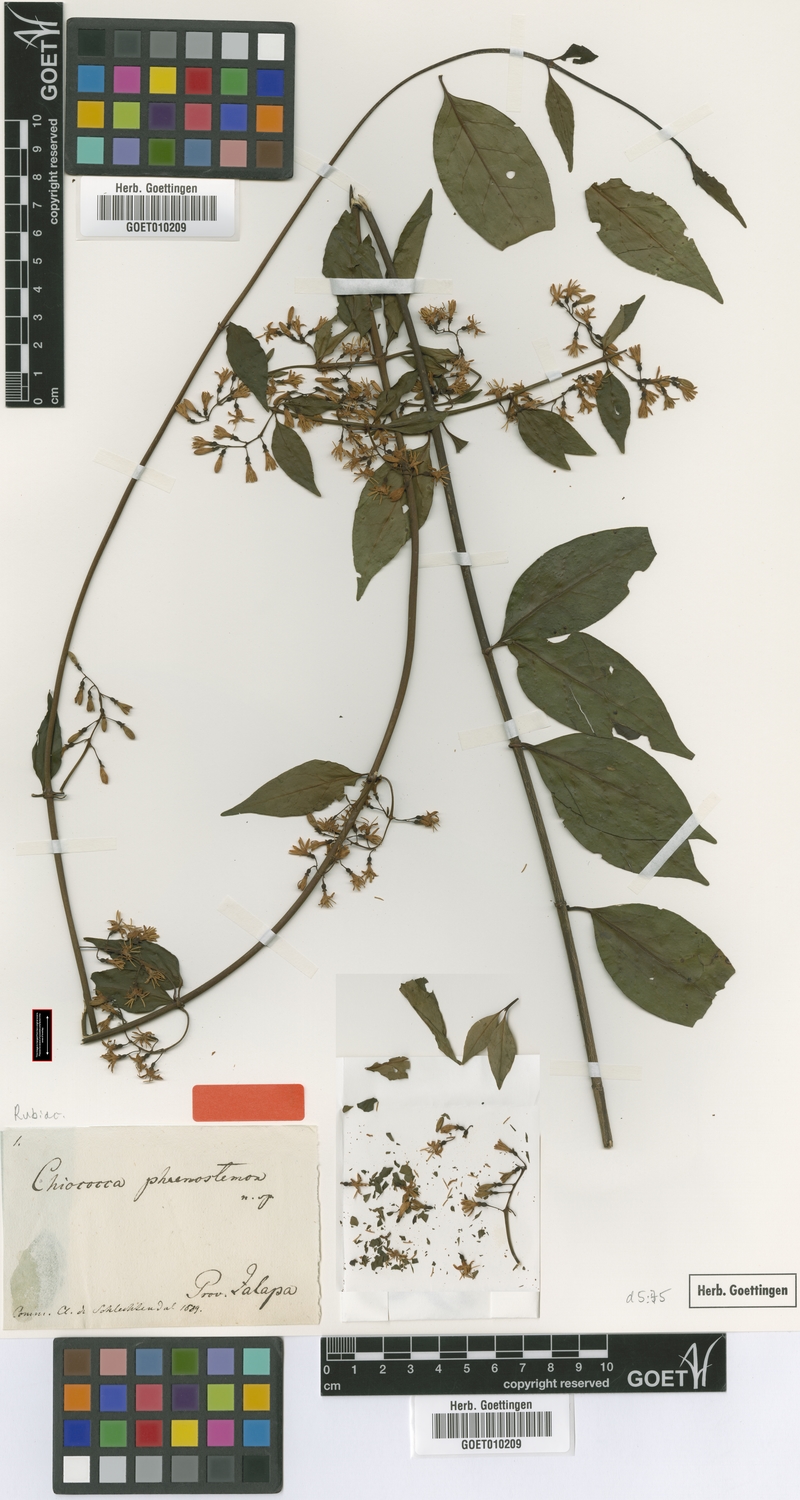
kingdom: Plantae
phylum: Tracheophyta
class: Magnoliopsida
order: Gentianales
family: Rubiaceae
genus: Chiococca
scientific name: Chiococca phaenostemon
